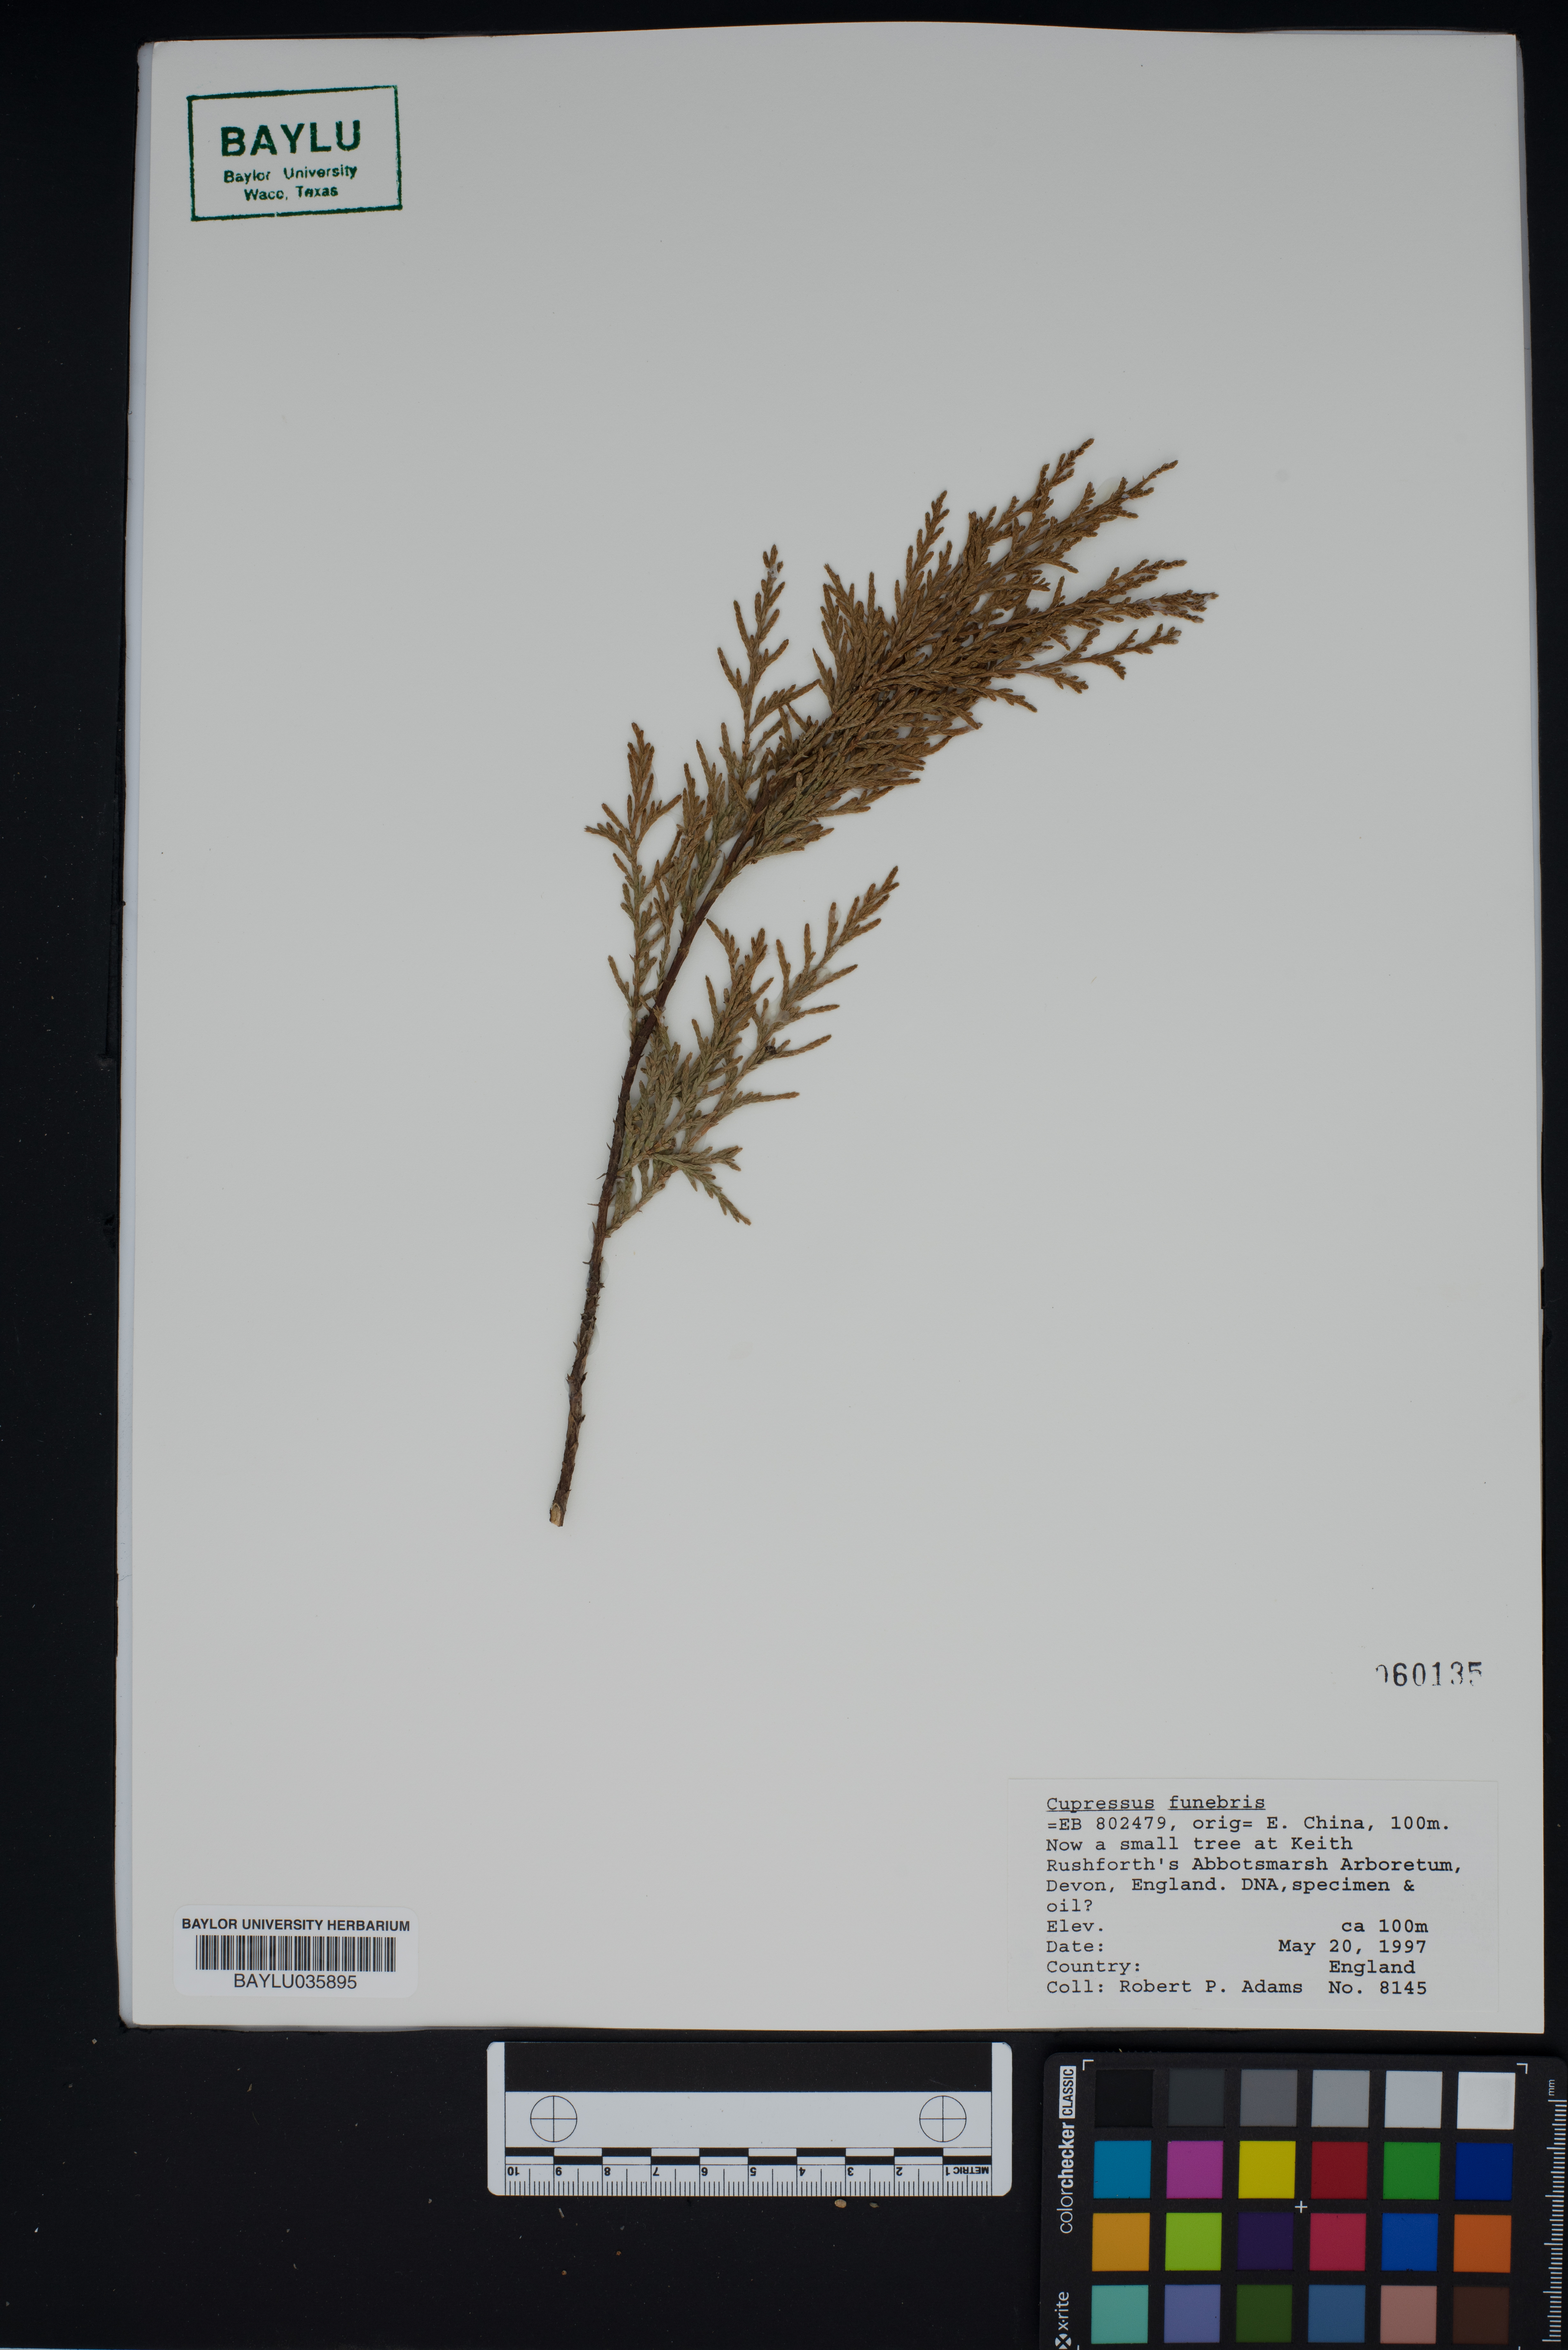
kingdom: Plantae
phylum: Tracheophyta
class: Pinopsida
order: Pinales
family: Cupressaceae
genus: Cupressus
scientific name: Cupressus funebris
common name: Chinese weeping cypress
